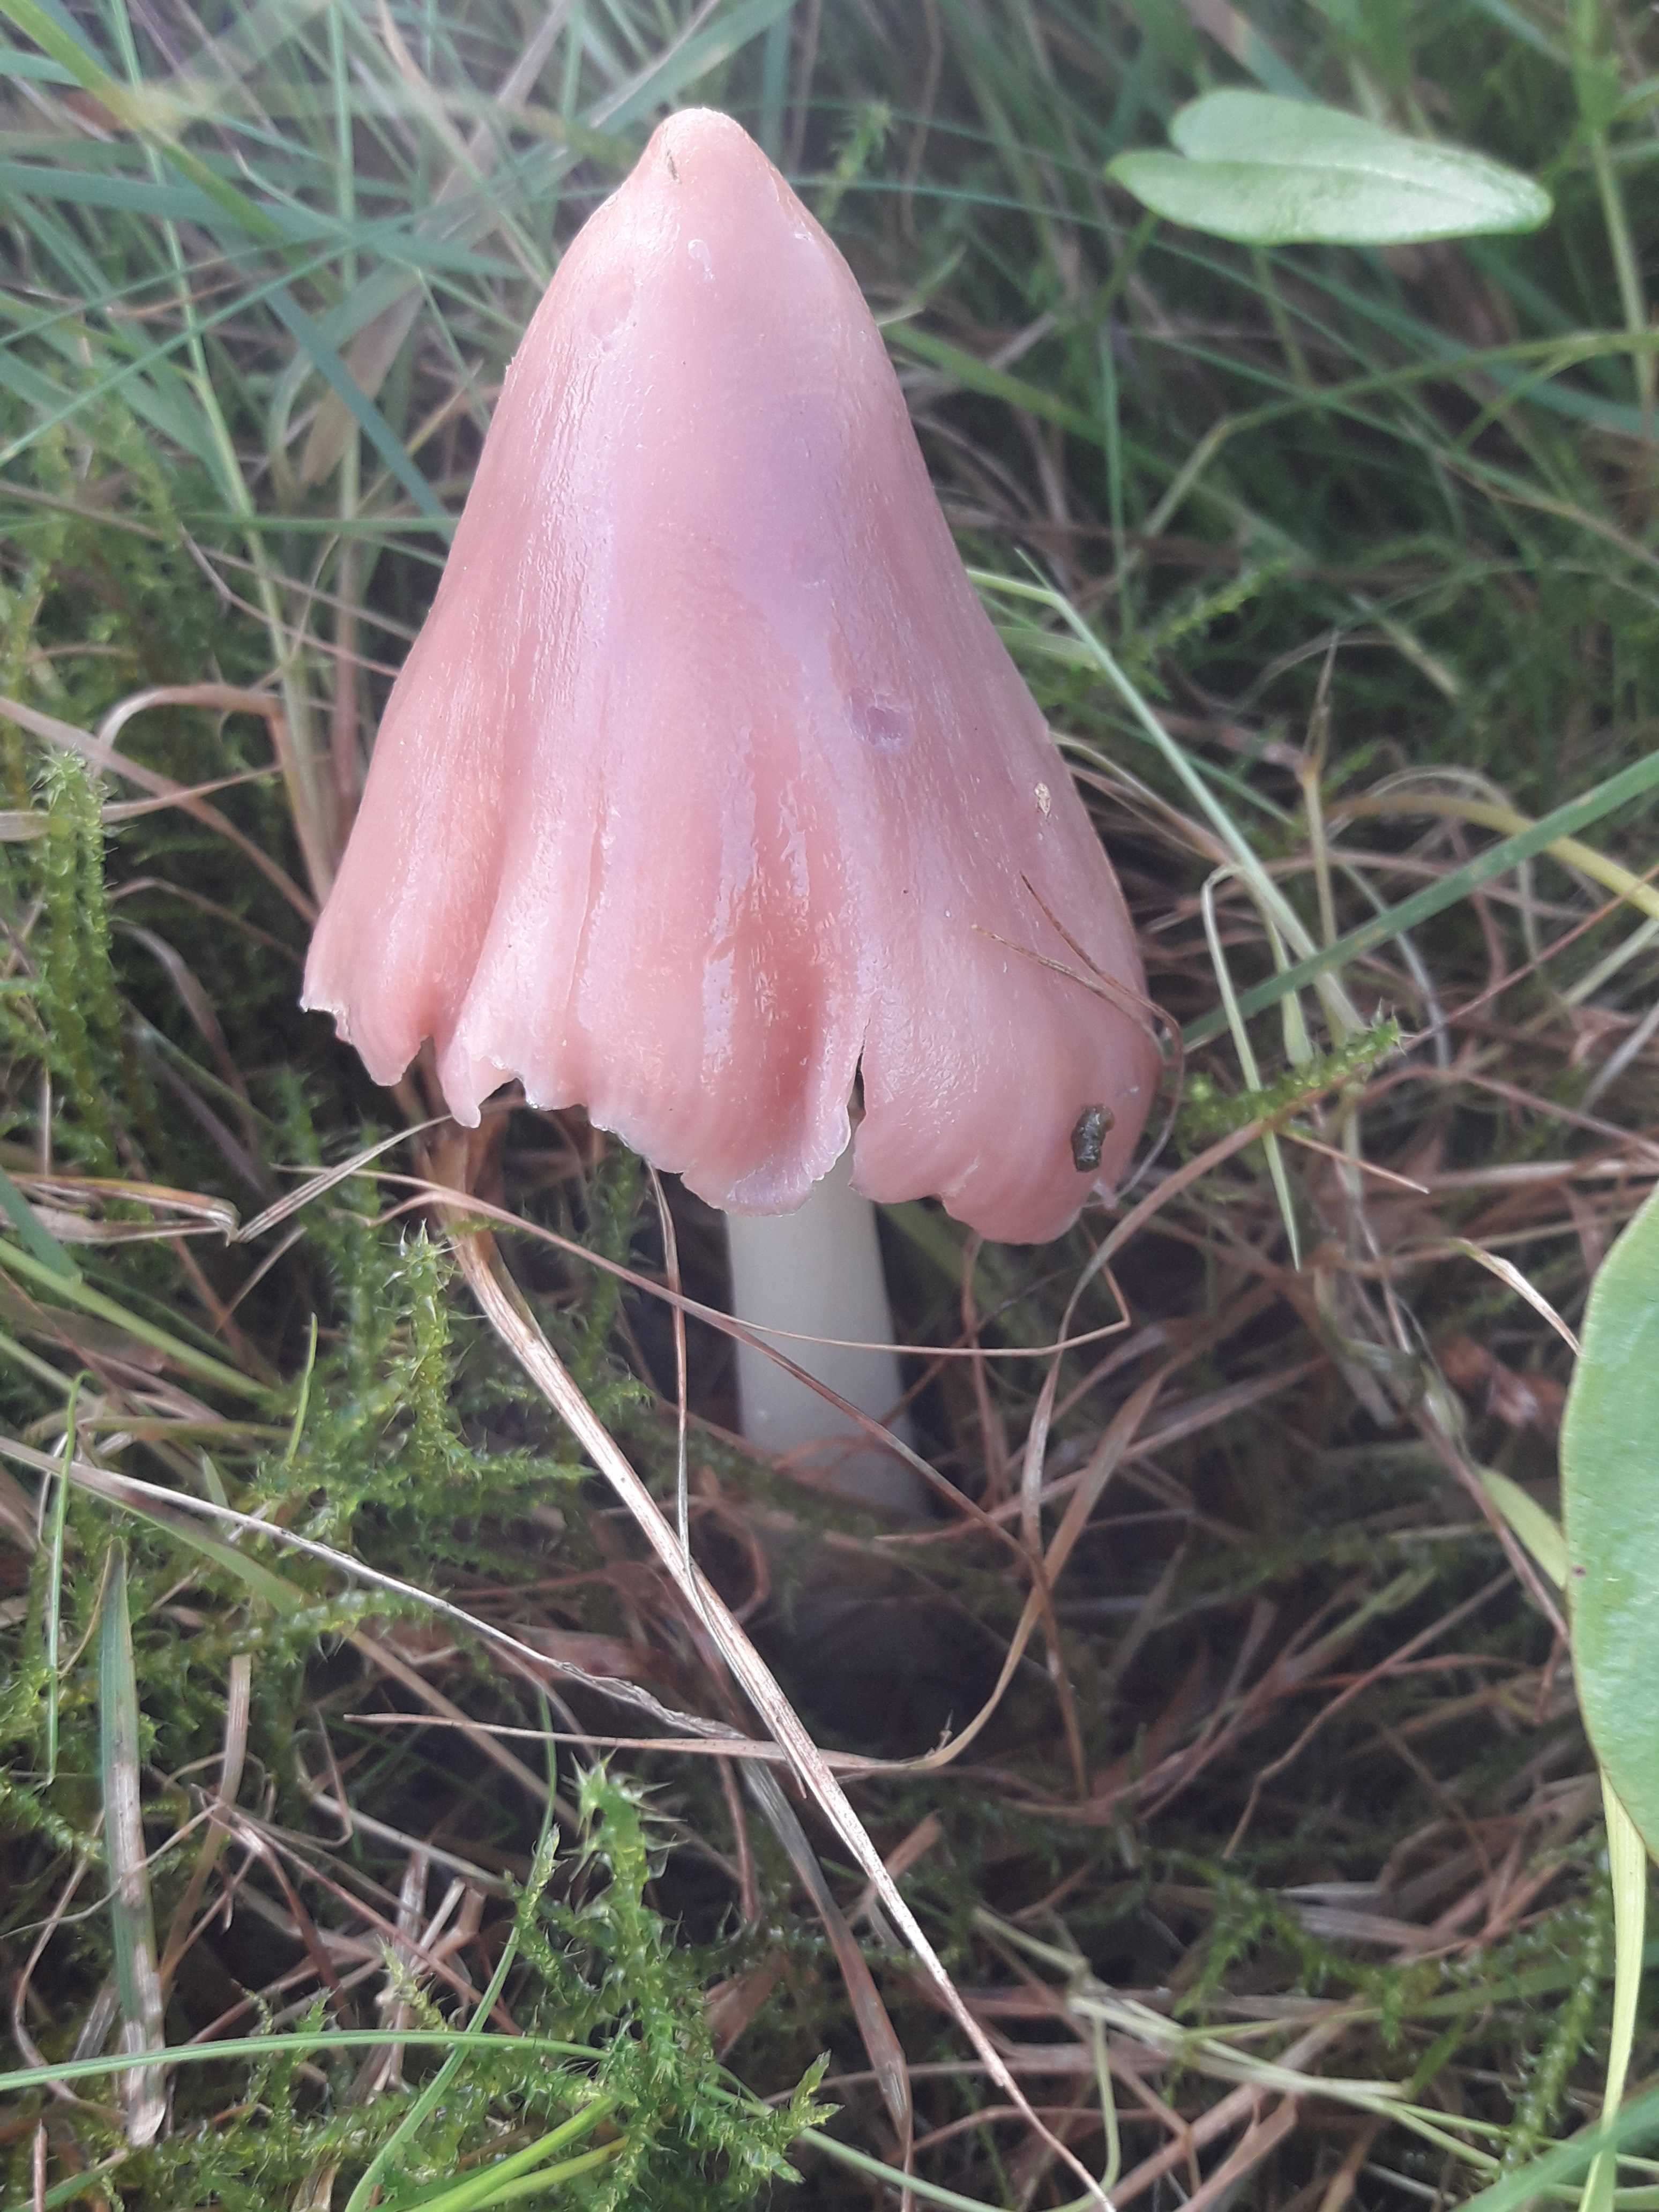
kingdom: Fungi
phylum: Basidiomycota
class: Agaricomycetes
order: Agaricales
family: Hygrophoraceae
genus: Porpolomopsis
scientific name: Porpolomopsis calyptriformis
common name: rosenrød vokshat
